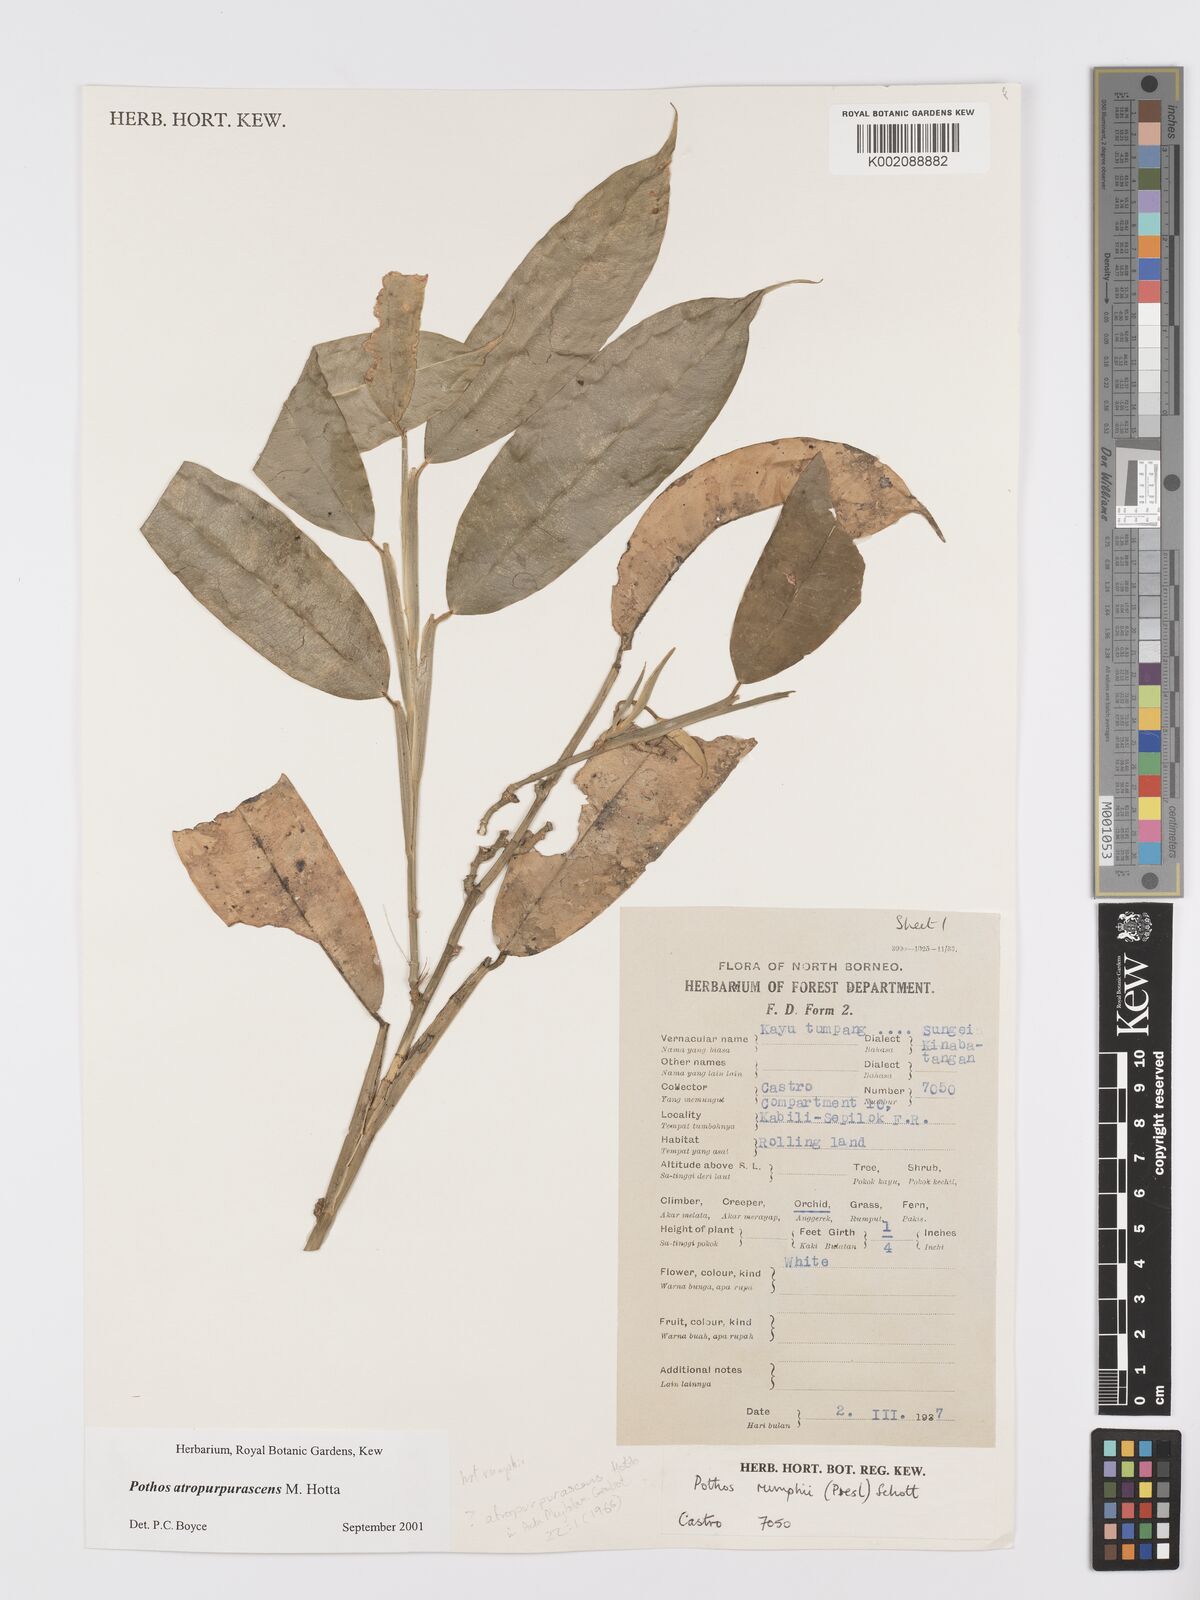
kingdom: Plantae
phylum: Tracheophyta
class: Liliopsida
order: Alismatales
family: Araceae
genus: Pothos
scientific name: Pothos atropurpurascens
